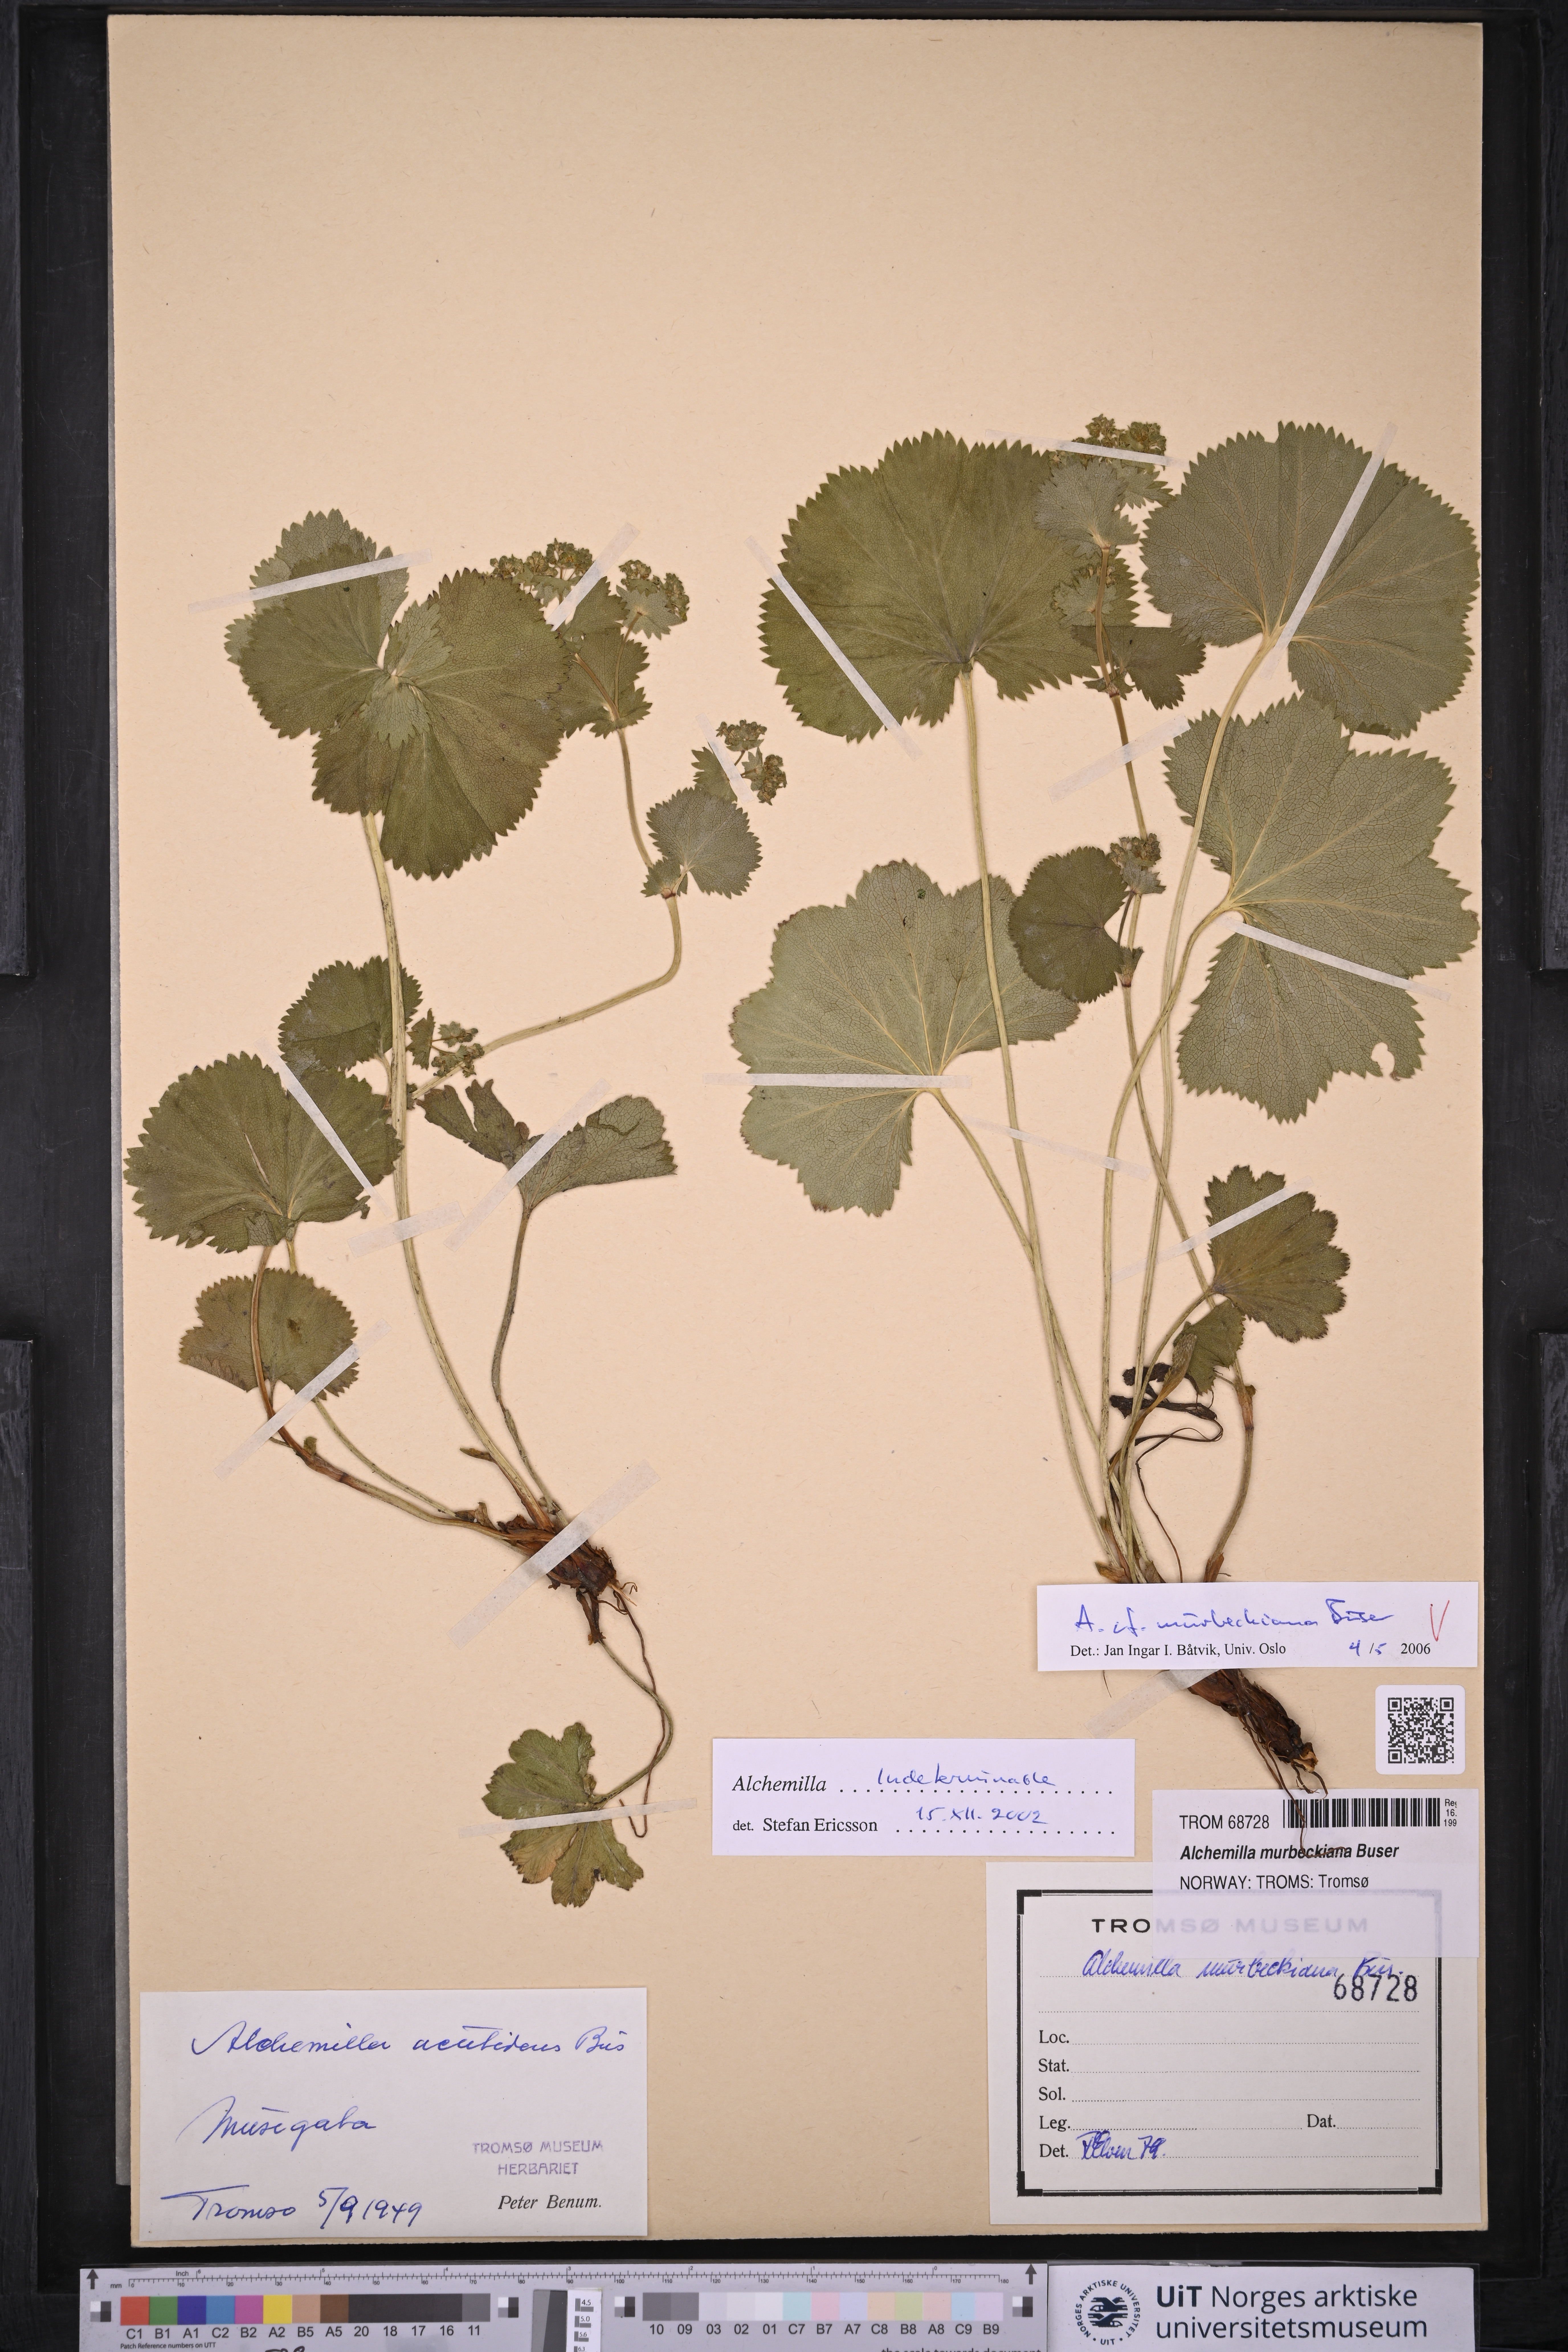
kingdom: Plantae
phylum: Tracheophyta
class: Magnoliopsida
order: Rosales
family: Rosaceae
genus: Alchemilla
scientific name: Alchemilla murbeckiana
